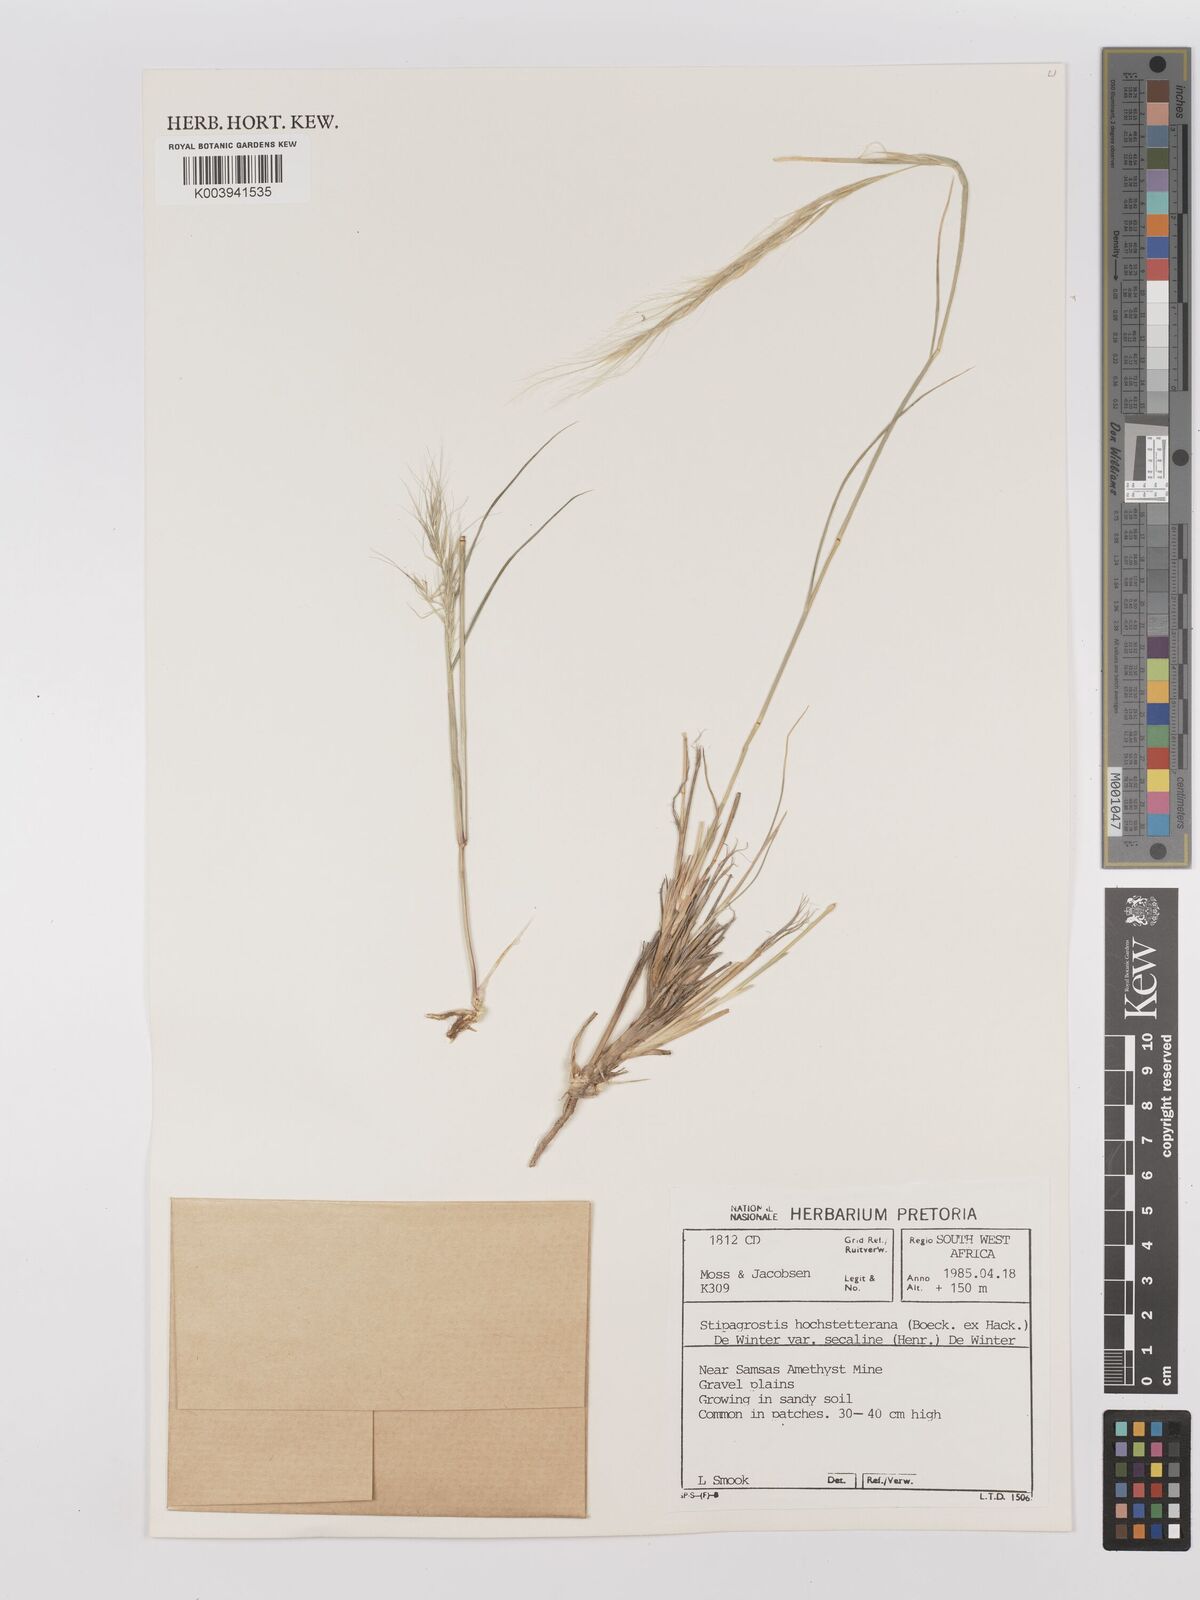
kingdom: Plantae
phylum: Tracheophyta
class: Liliopsida
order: Poales
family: Poaceae
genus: Stipagrostis
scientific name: Stipagrostis hochstetteriana
